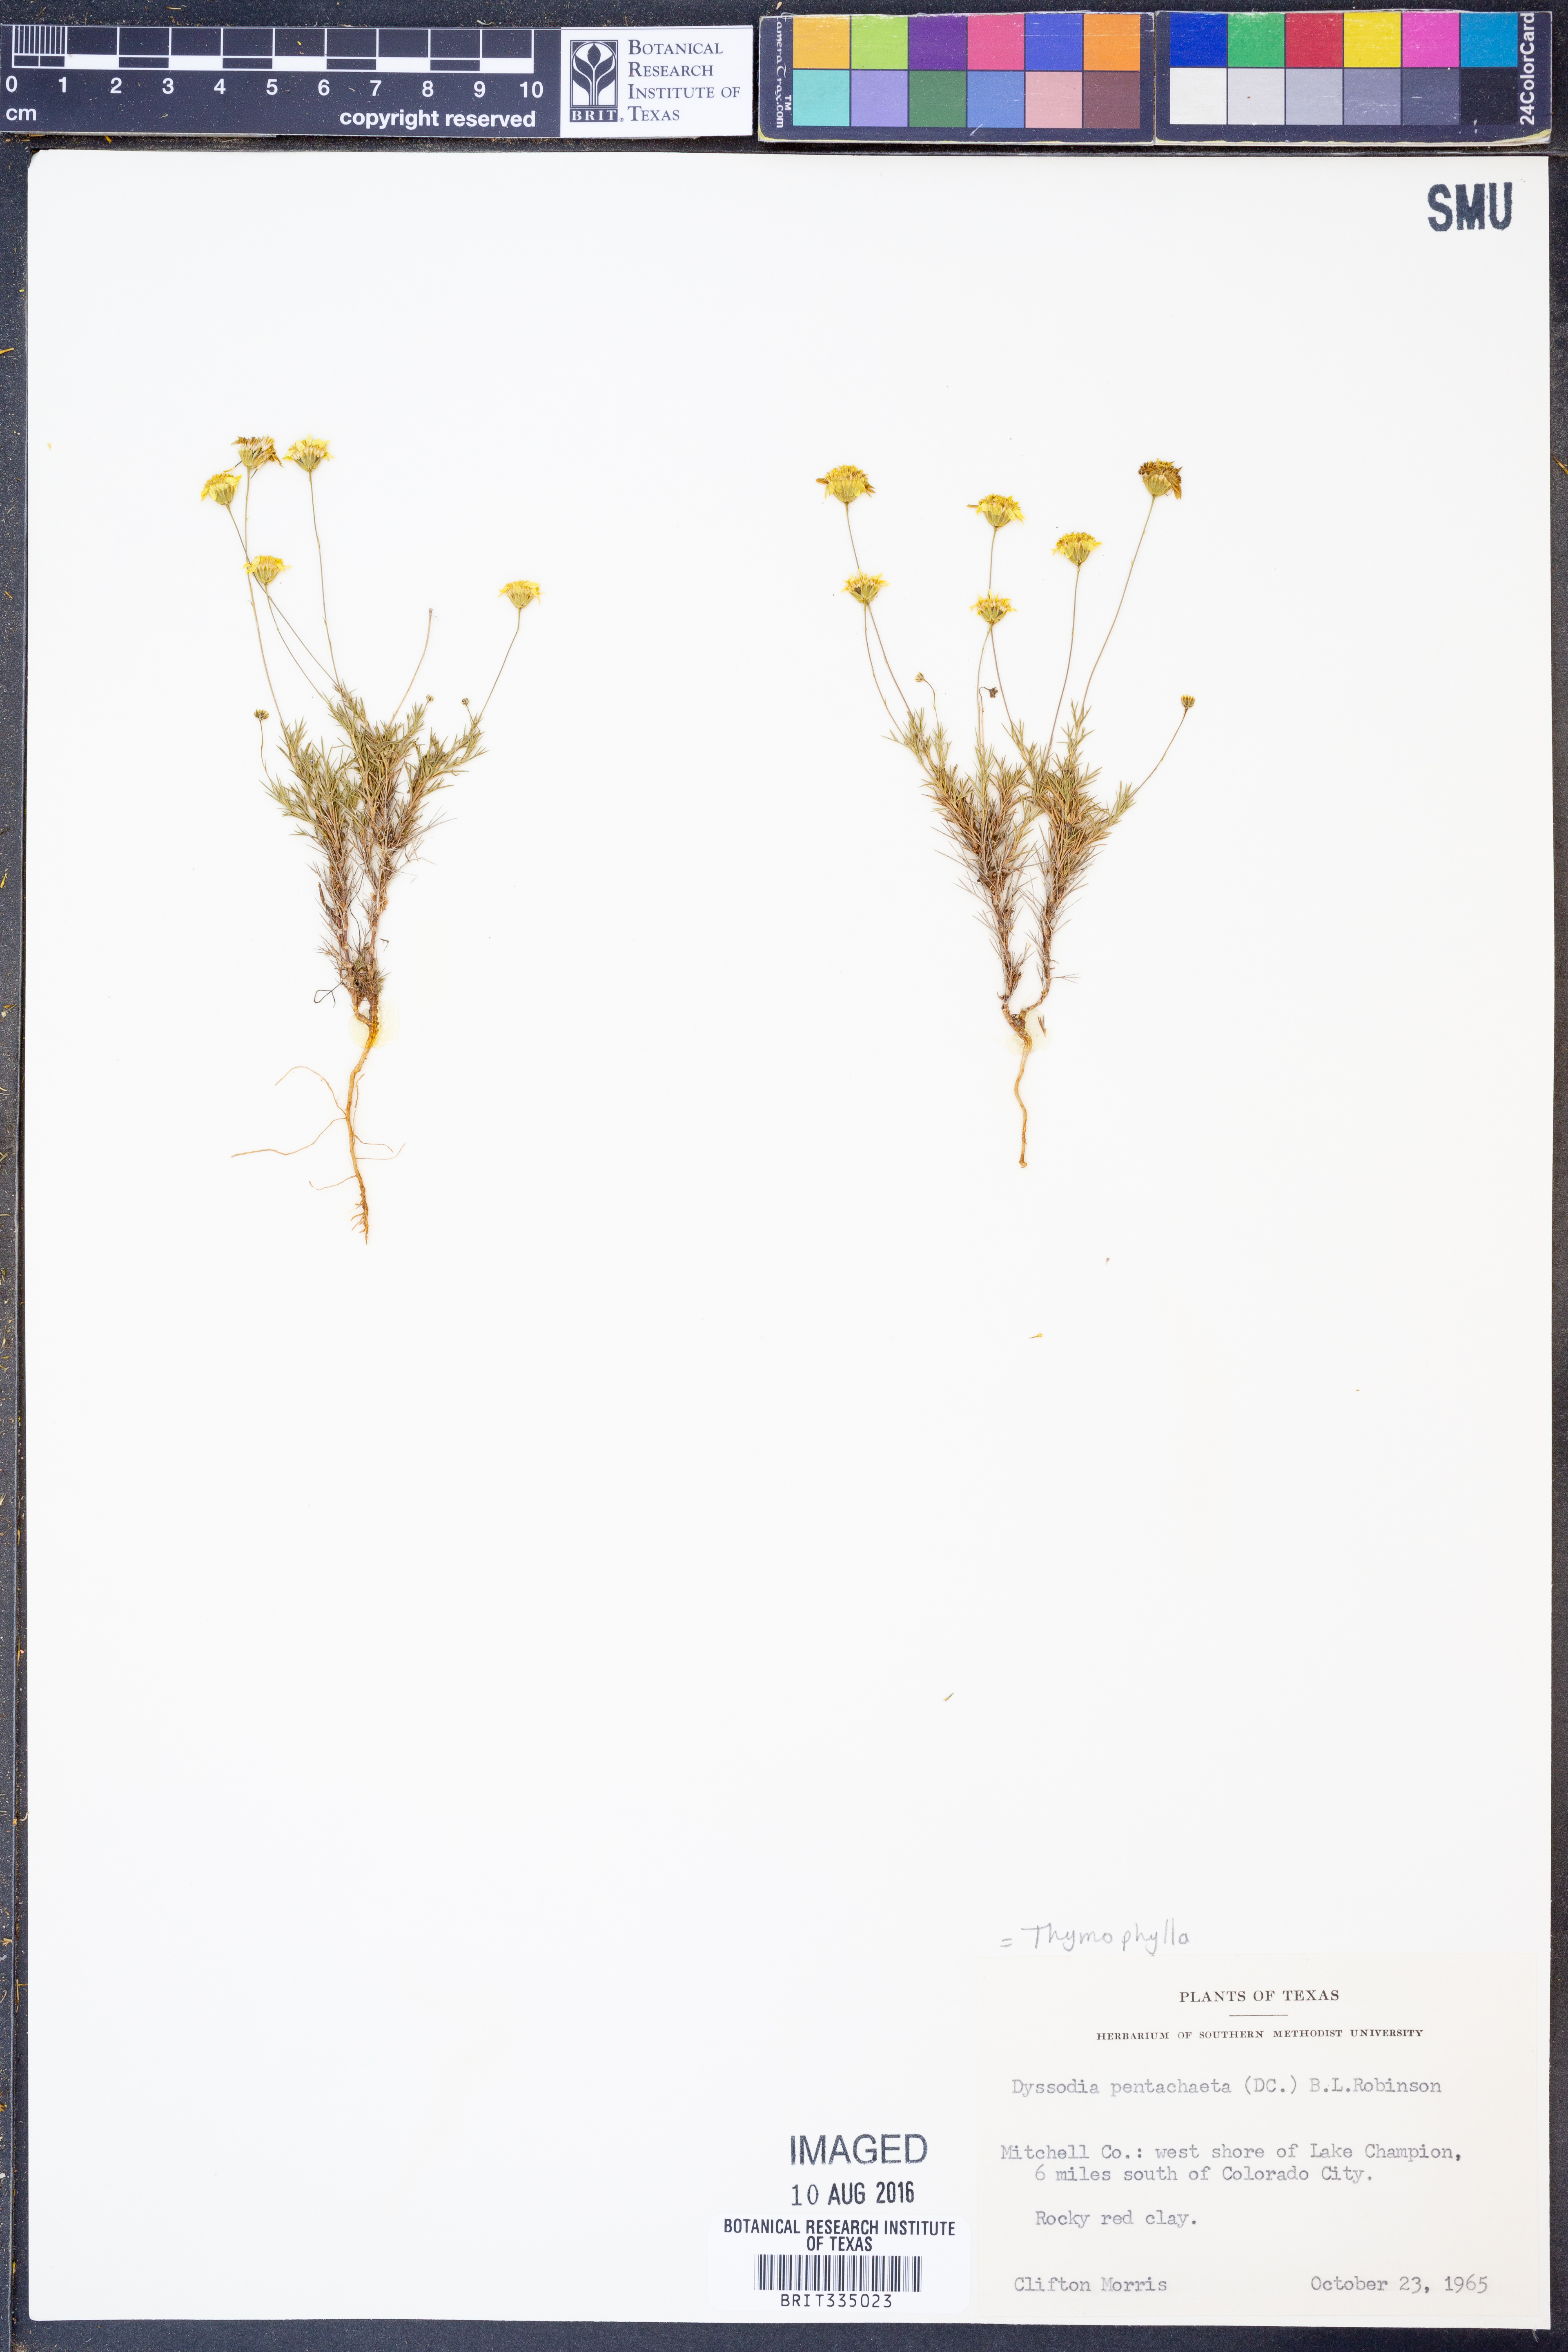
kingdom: Plantae
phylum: Tracheophyta
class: Magnoliopsida
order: Asterales
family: Asteraceae
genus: Thymophylla
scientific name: Thymophylla pentachaeta
